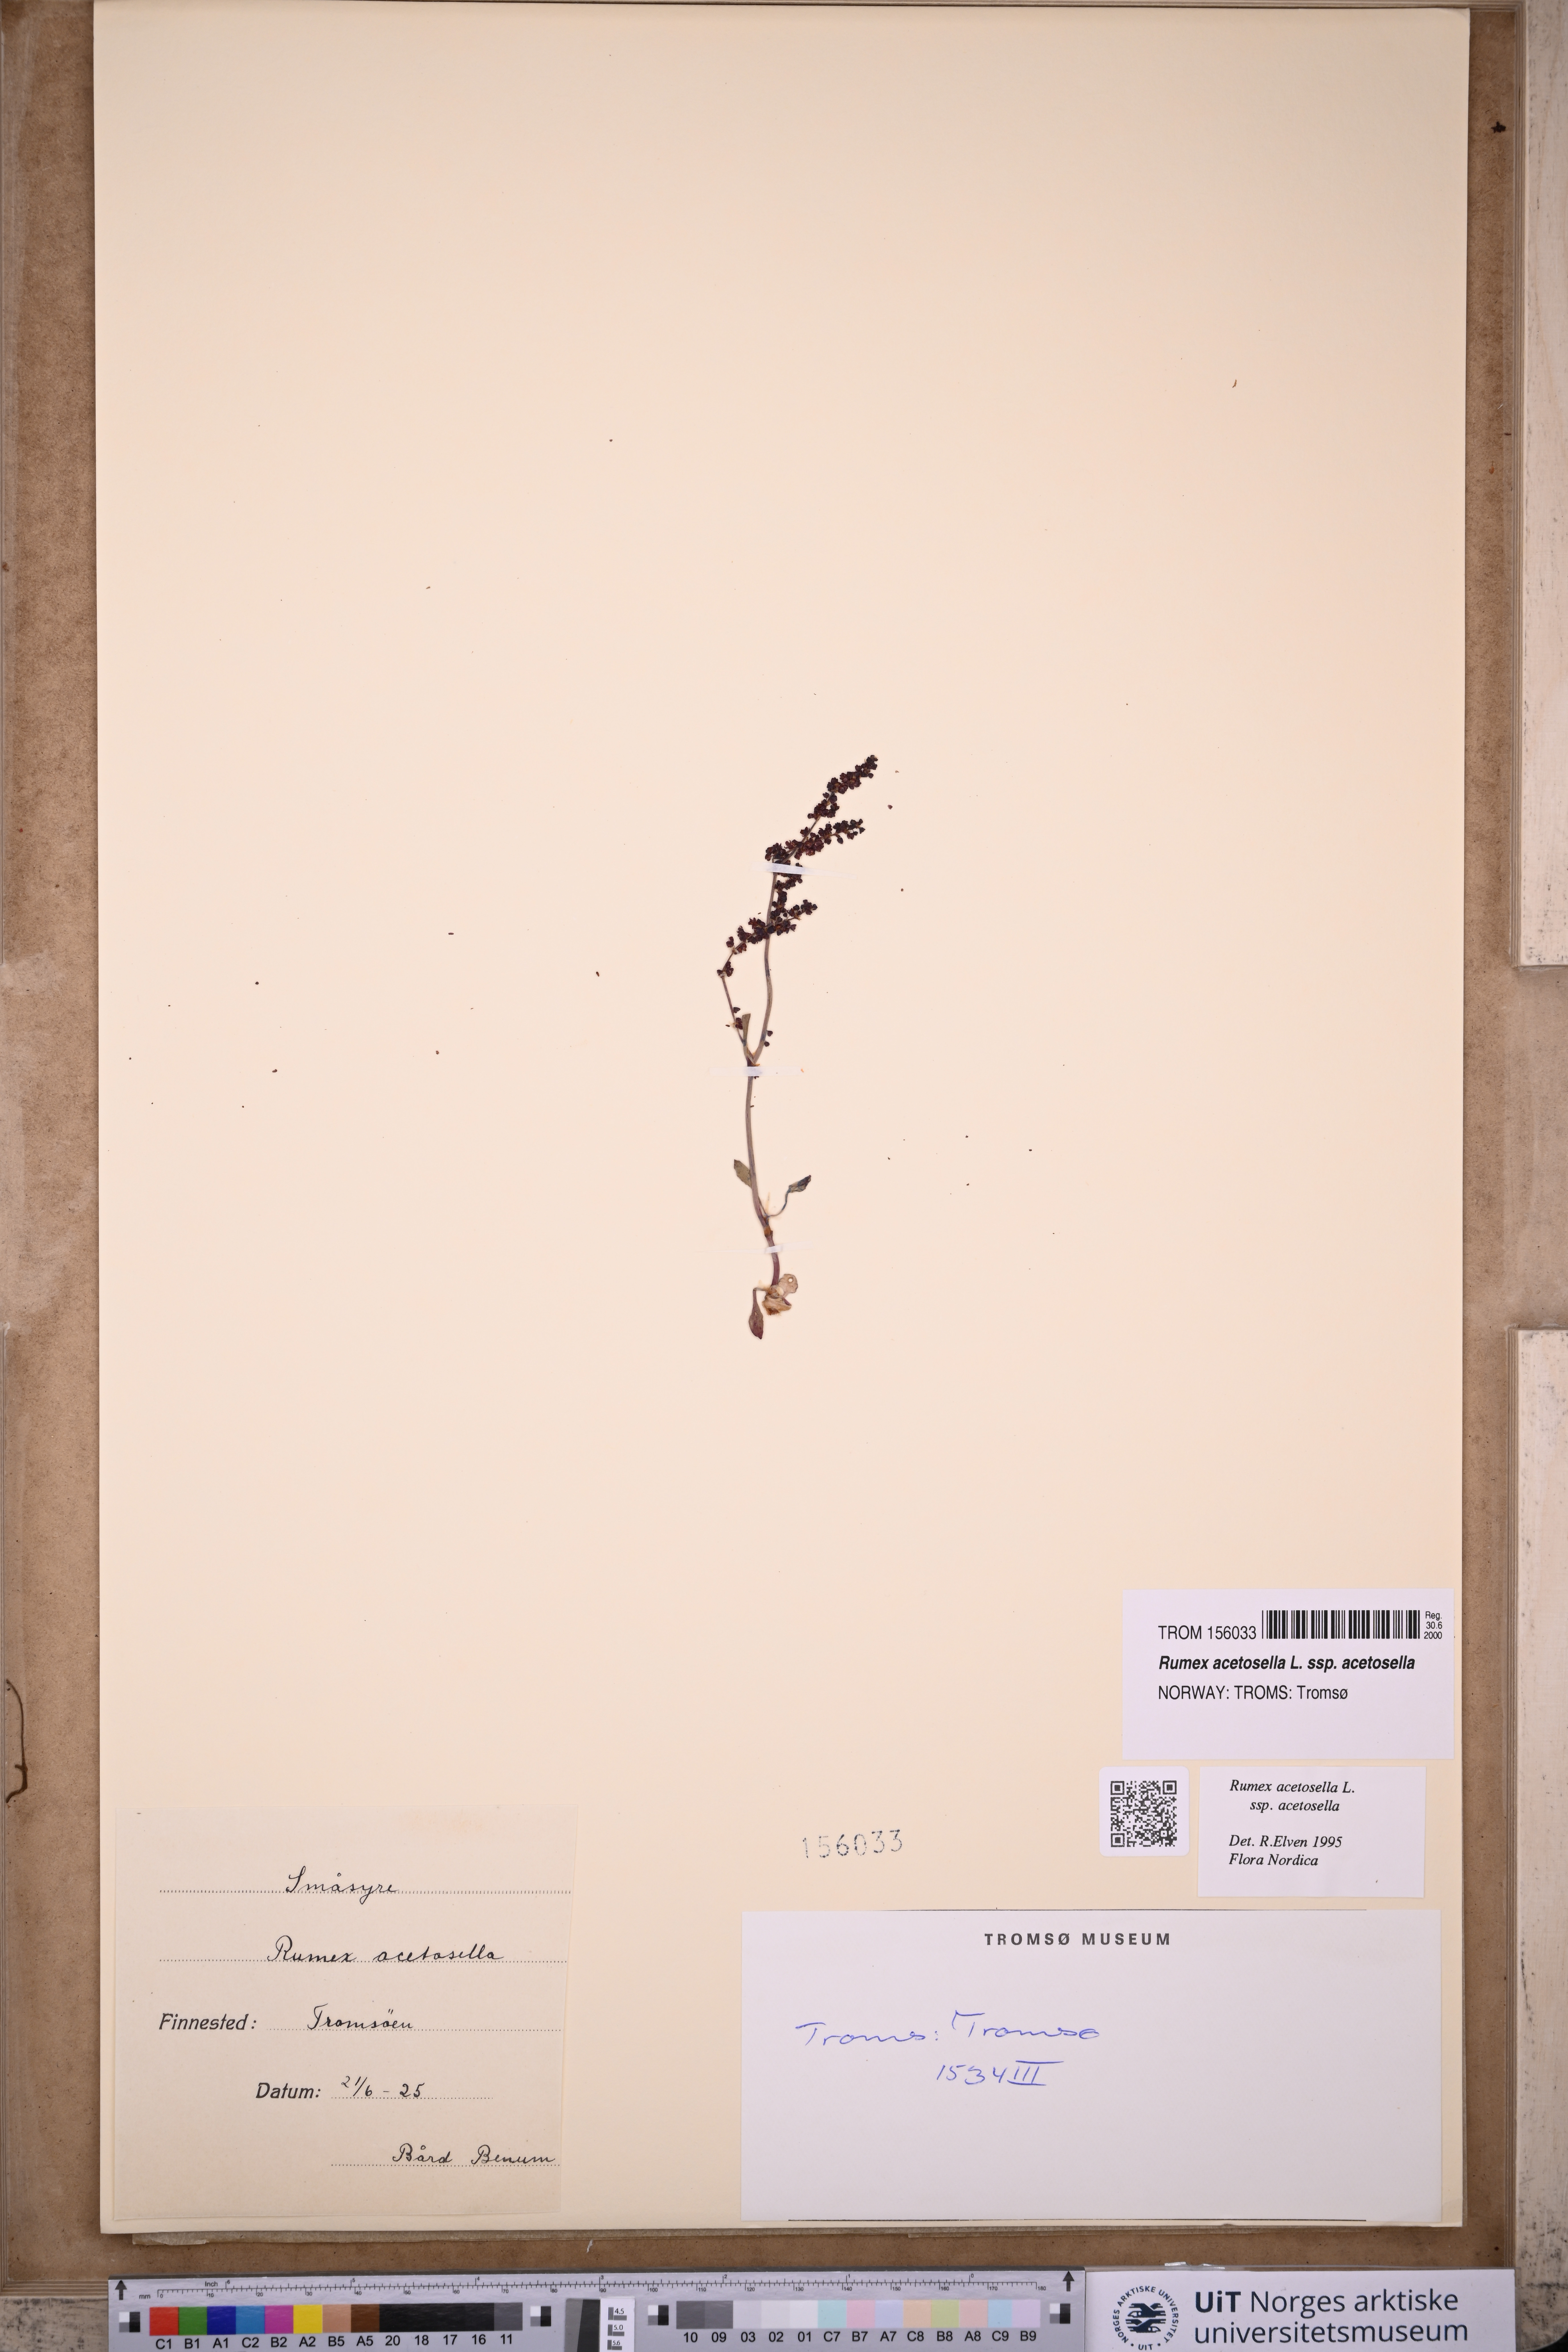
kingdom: Plantae
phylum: Tracheophyta
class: Magnoliopsida
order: Caryophyllales
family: Polygonaceae
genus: Rumex
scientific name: Rumex acetosella
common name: Common sheep sorrel
